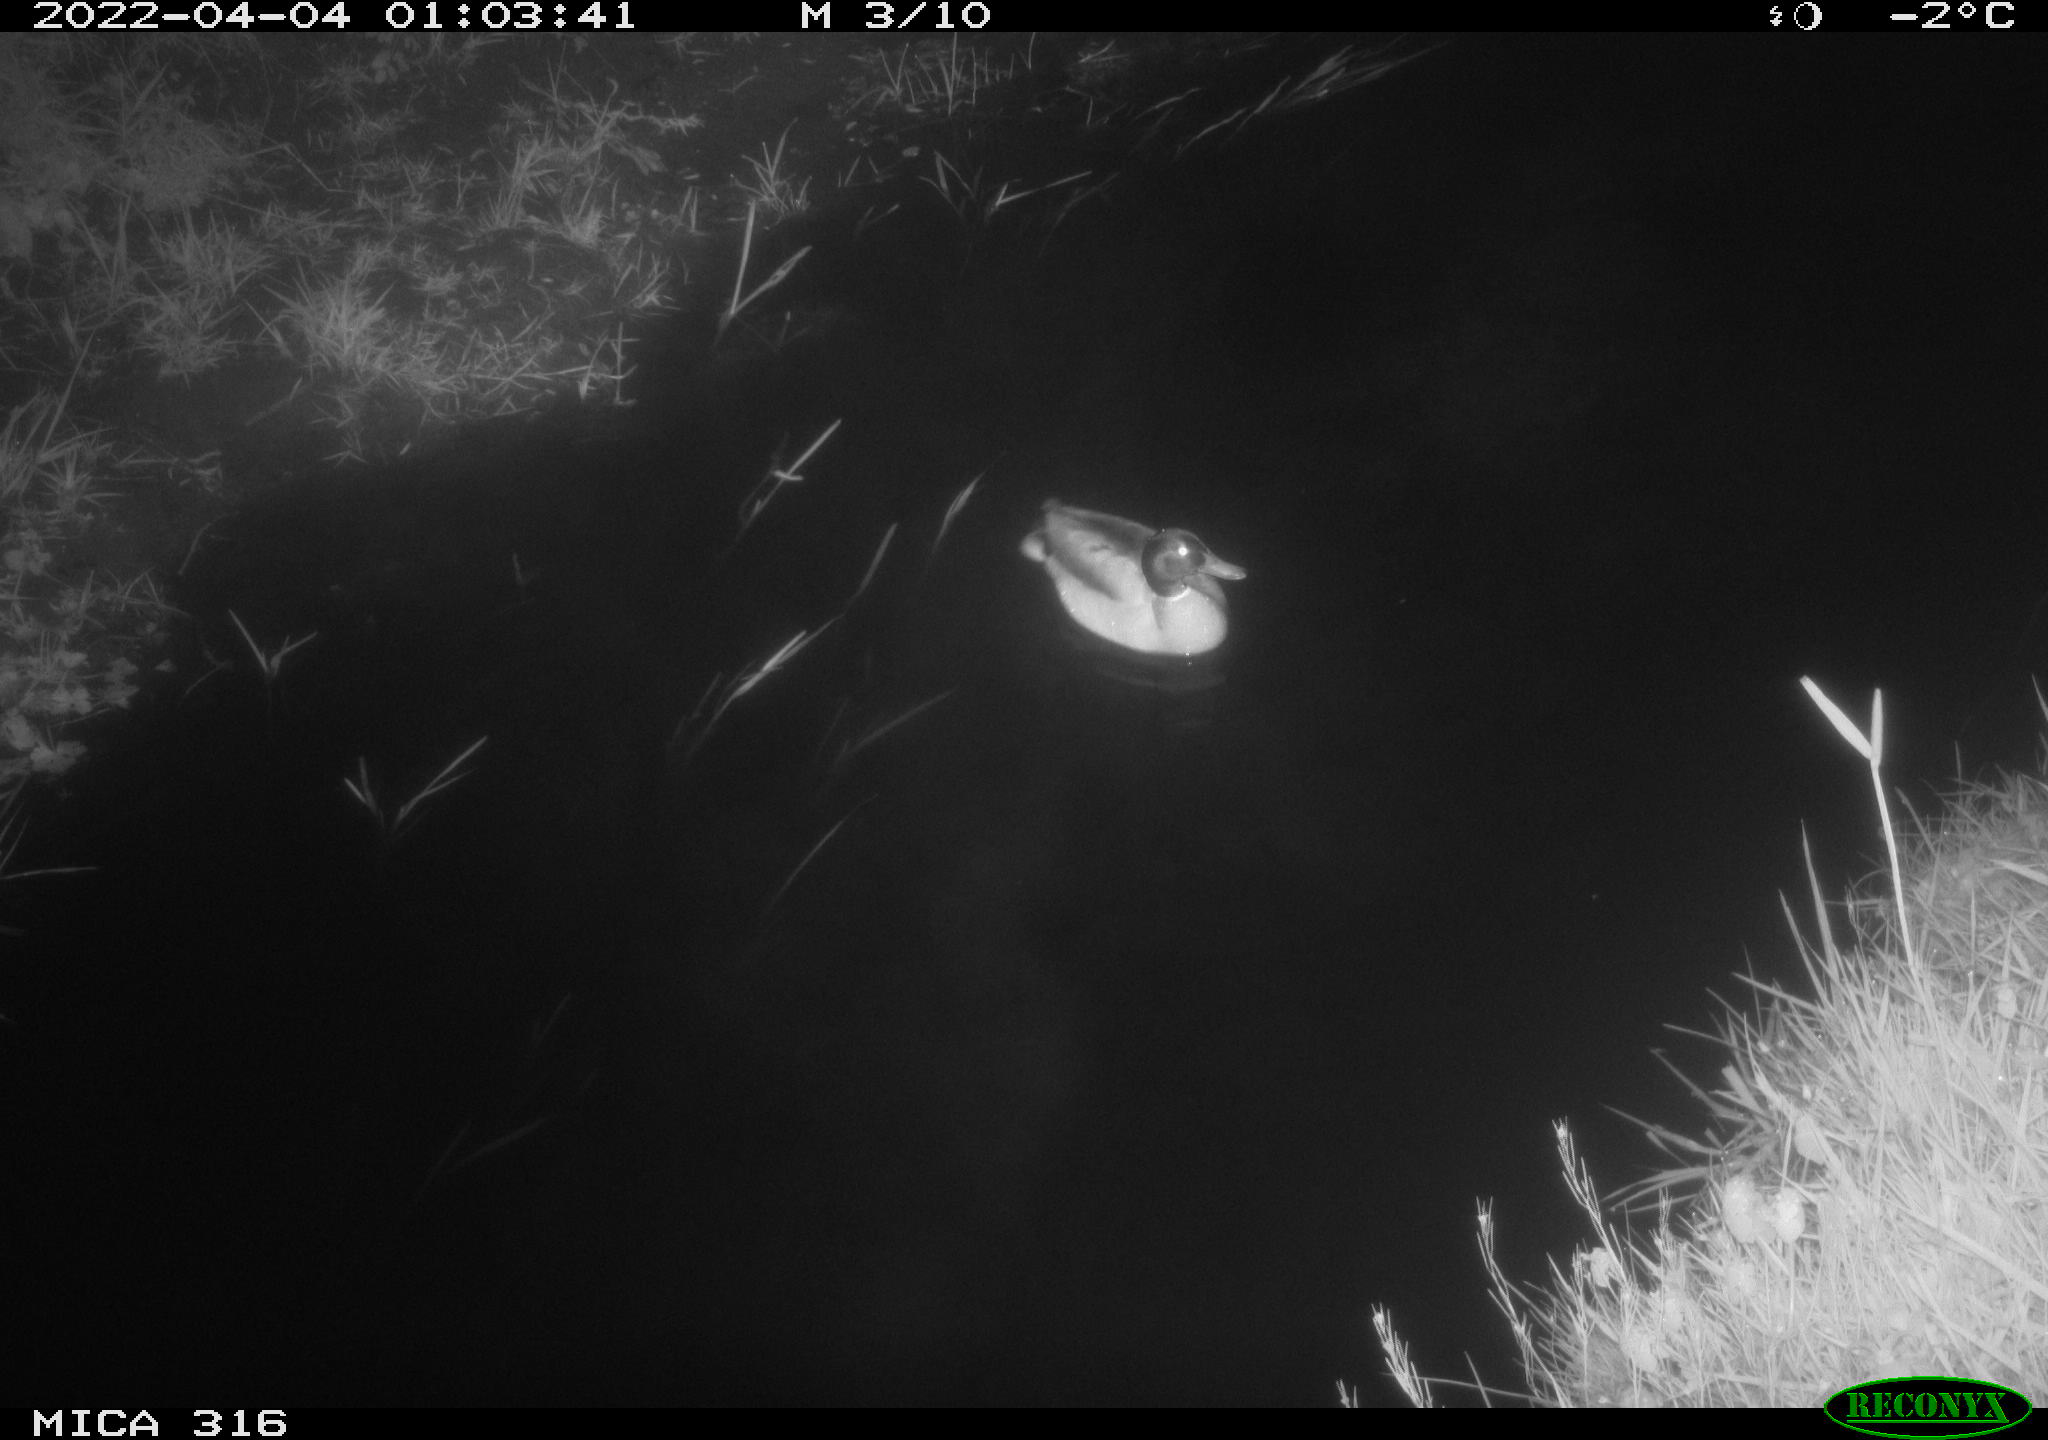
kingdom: Animalia
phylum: Chordata
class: Aves
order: Anseriformes
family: Anatidae
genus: Anas
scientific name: Anas platyrhynchos
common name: Mallard
